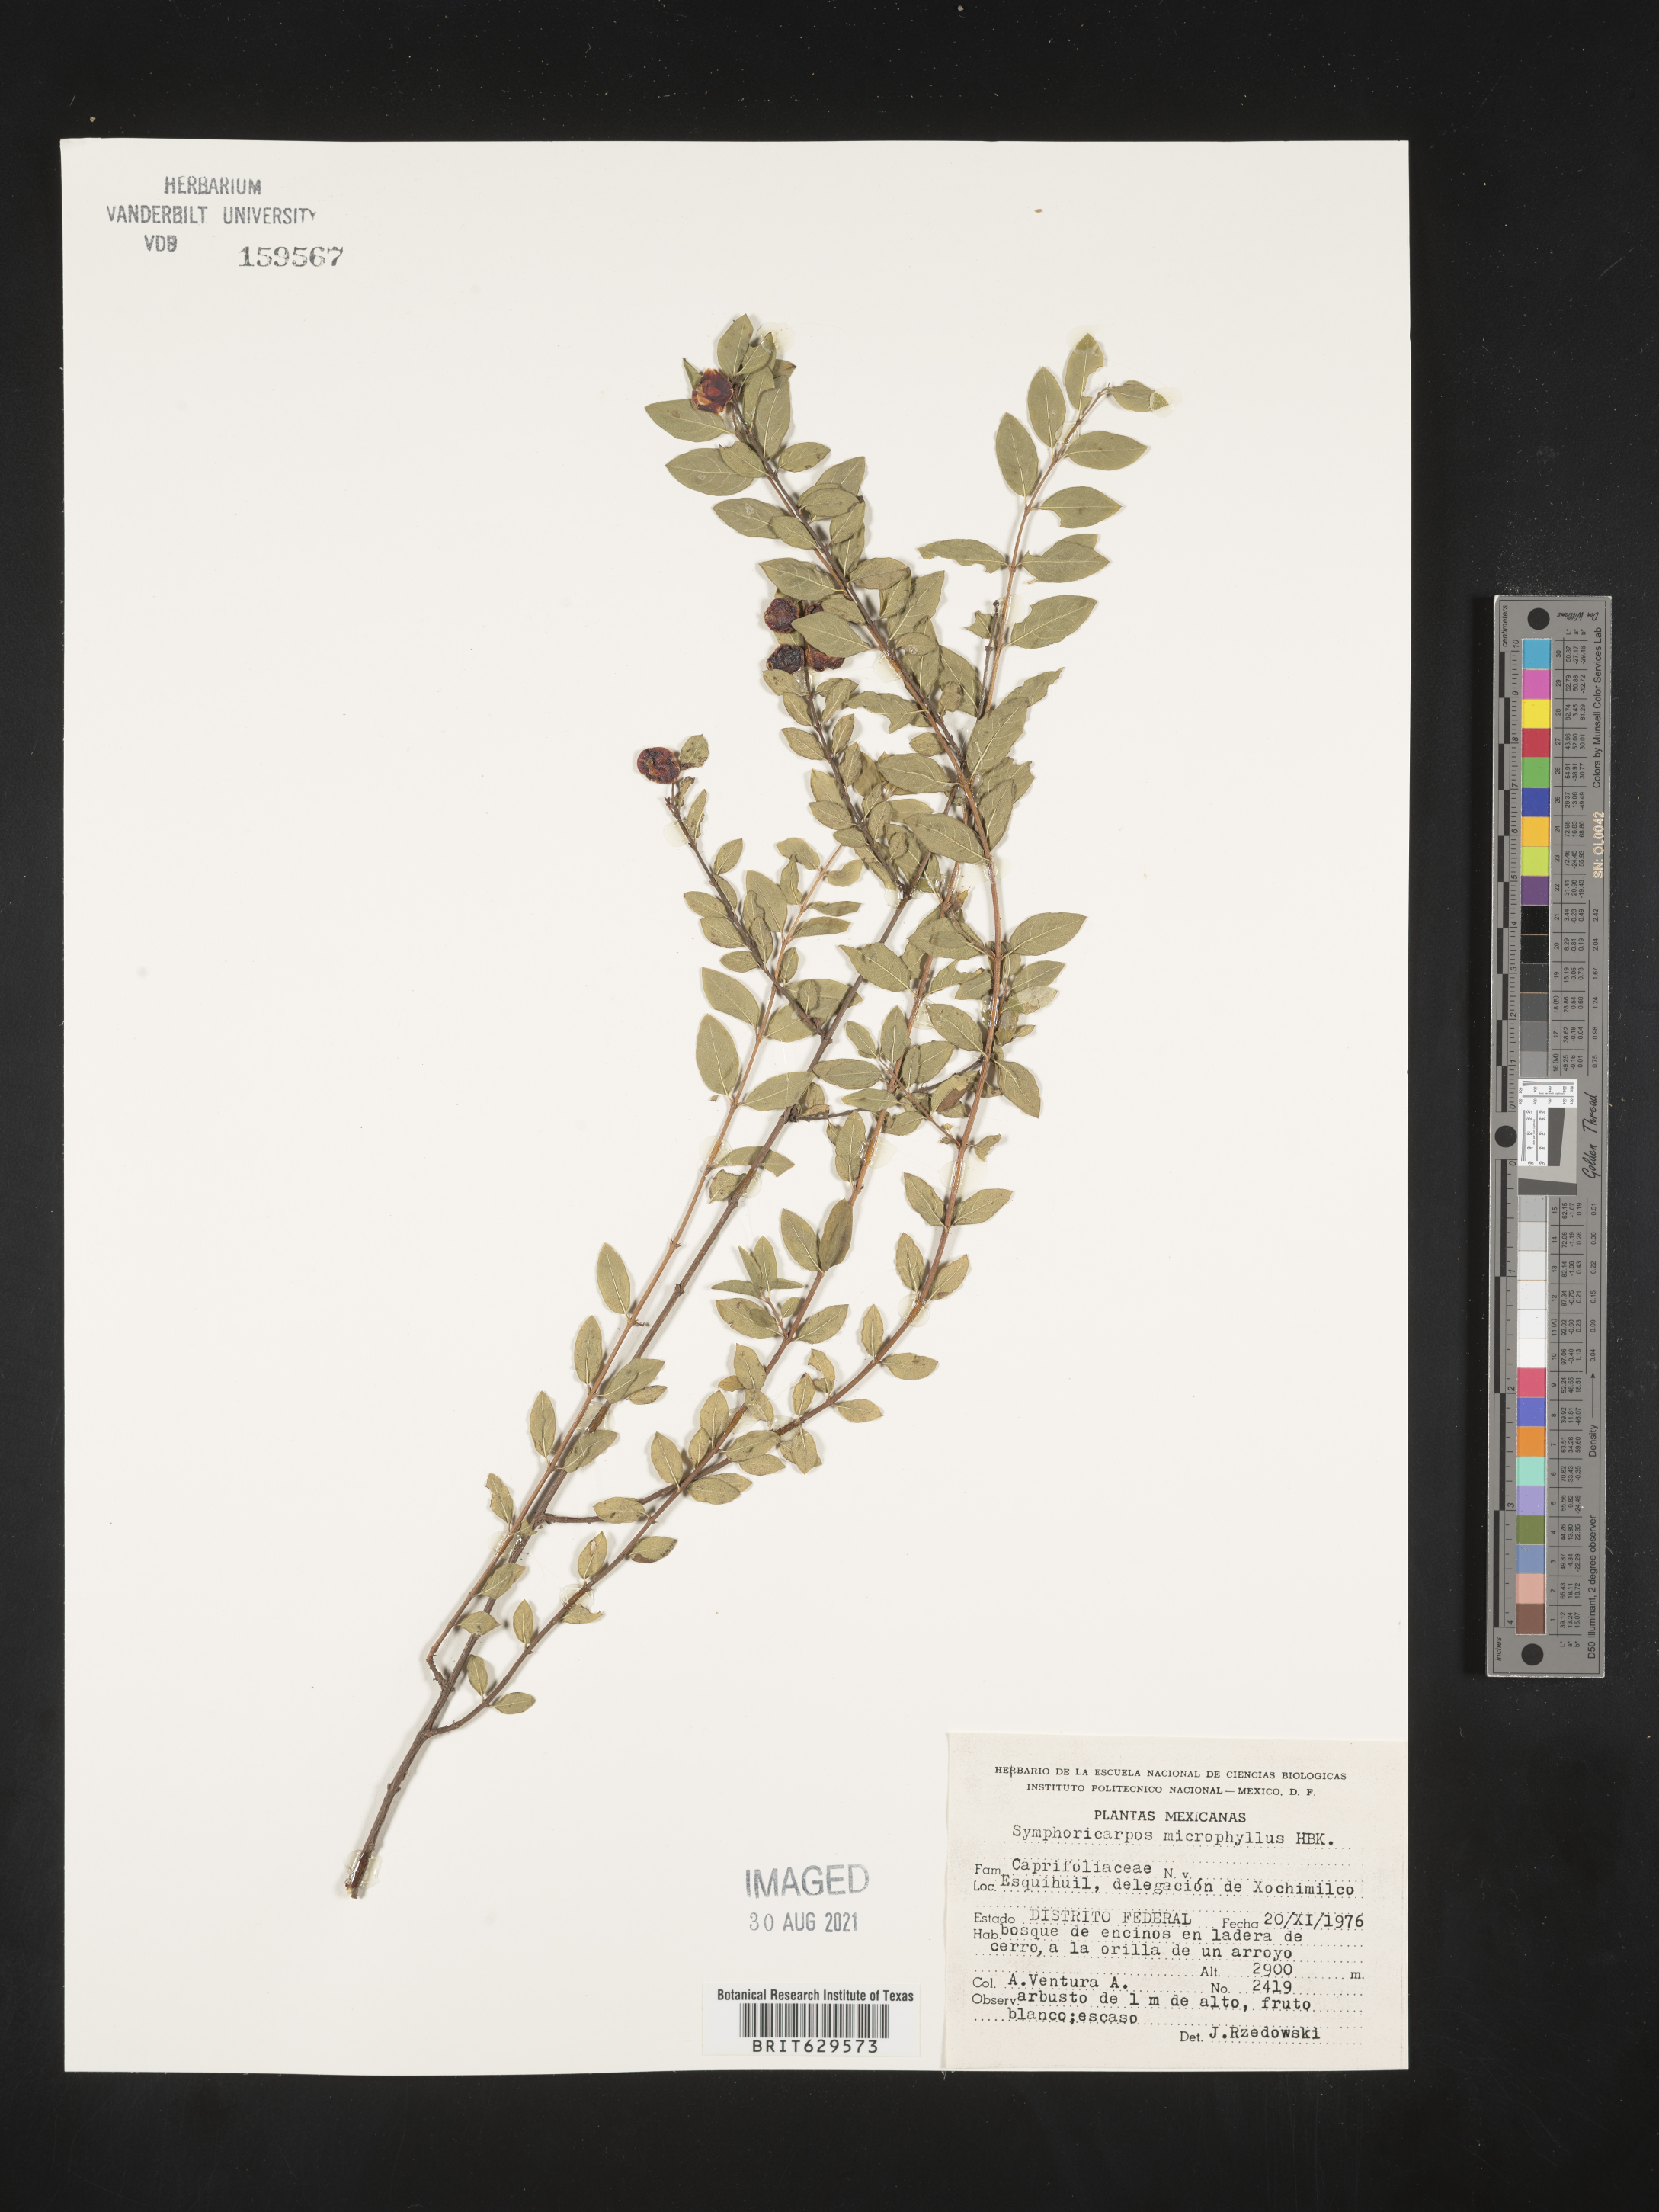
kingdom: Plantae
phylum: Tracheophyta
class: Magnoliopsida
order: Dipsacales
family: Caprifoliaceae
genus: Symphoricarpos
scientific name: Symphoricarpos
